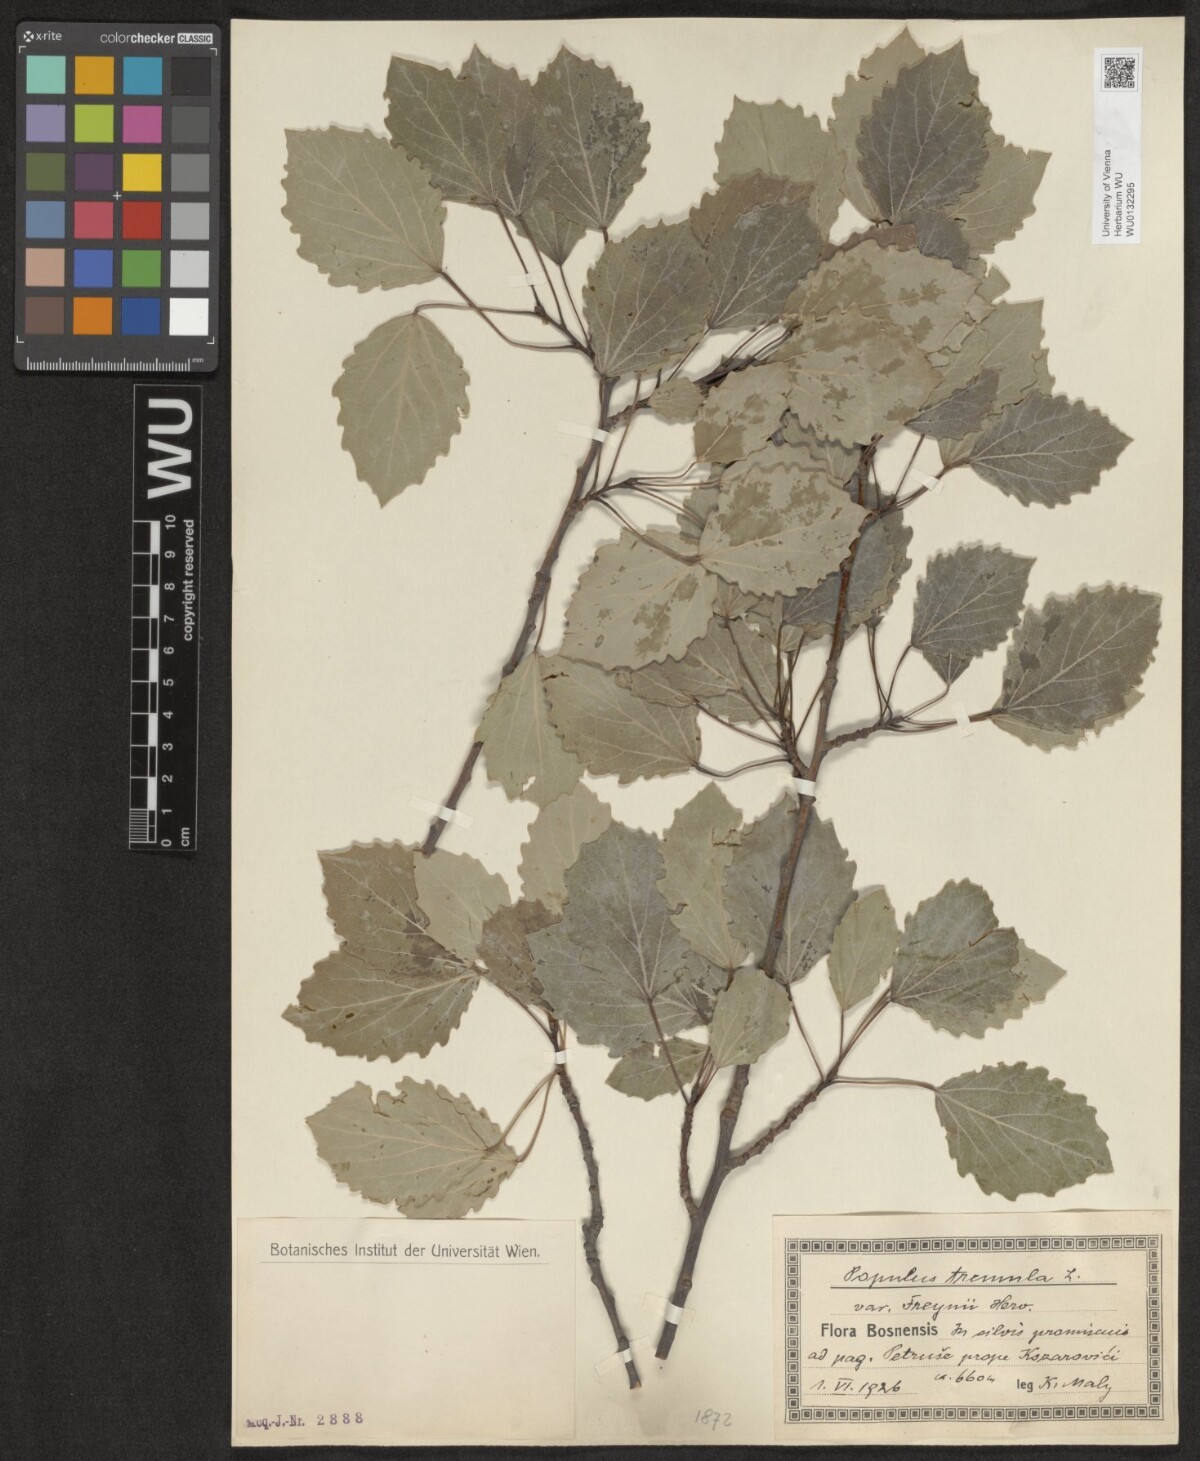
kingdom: Plantae
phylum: Tracheophyta
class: Magnoliopsida
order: Malpighiales
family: Salicaceae
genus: Populus
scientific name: Populus tremula
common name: European aspen
